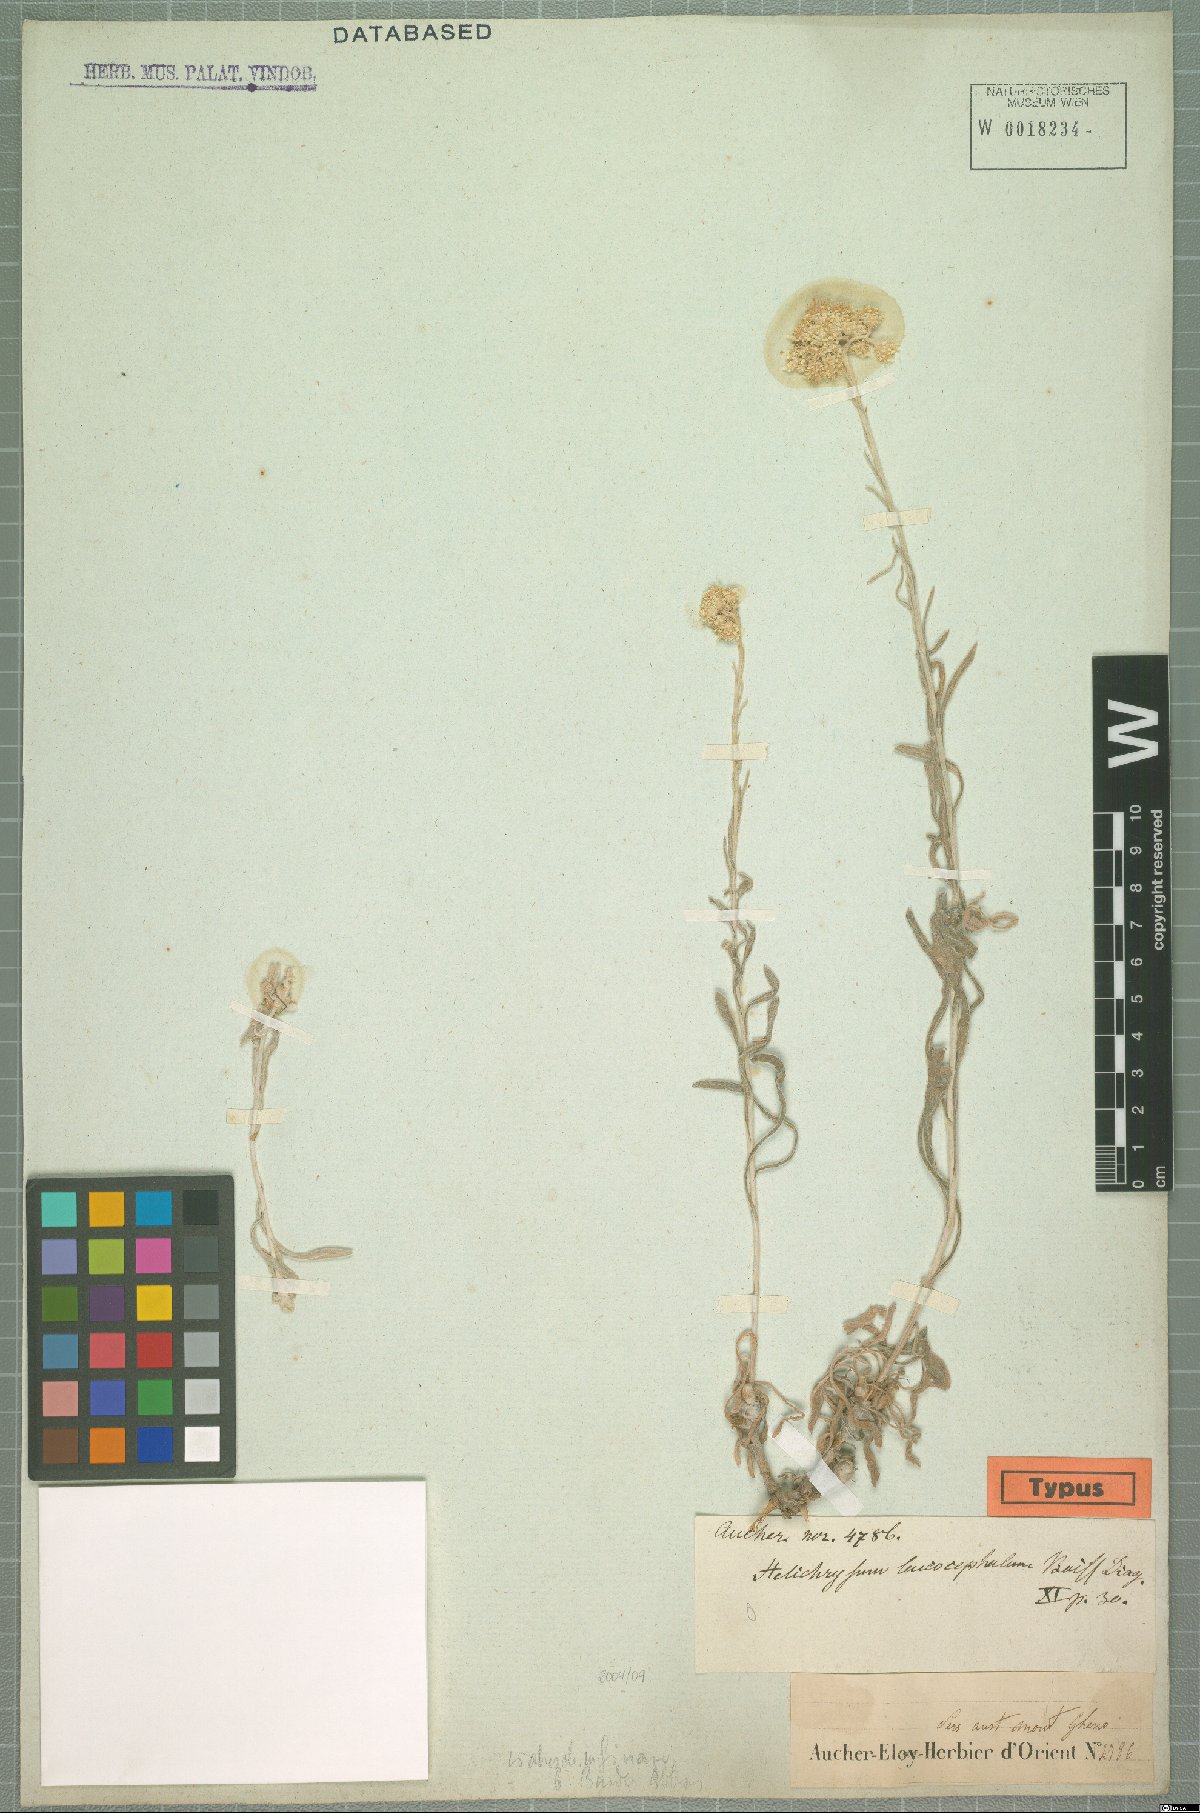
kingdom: Plantae
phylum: Tracheophyta
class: Magnoliopsida
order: Asterales
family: Asteraceae
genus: Helichrysum
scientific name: Helichrysum leucocephalum
